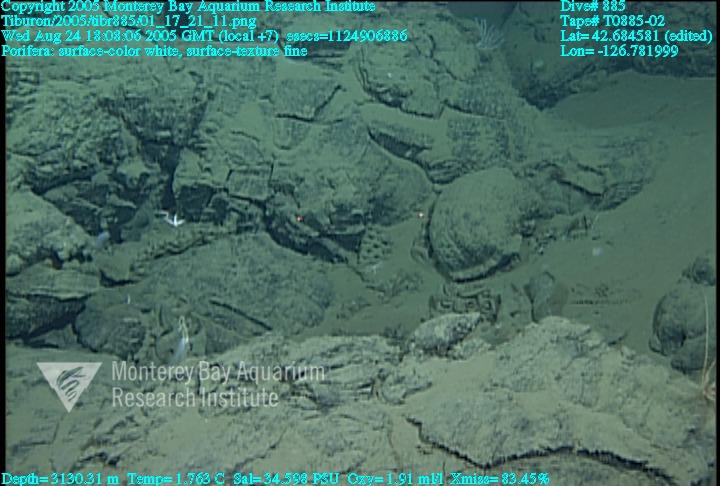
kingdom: Animalia
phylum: Porifera
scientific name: Porifera
